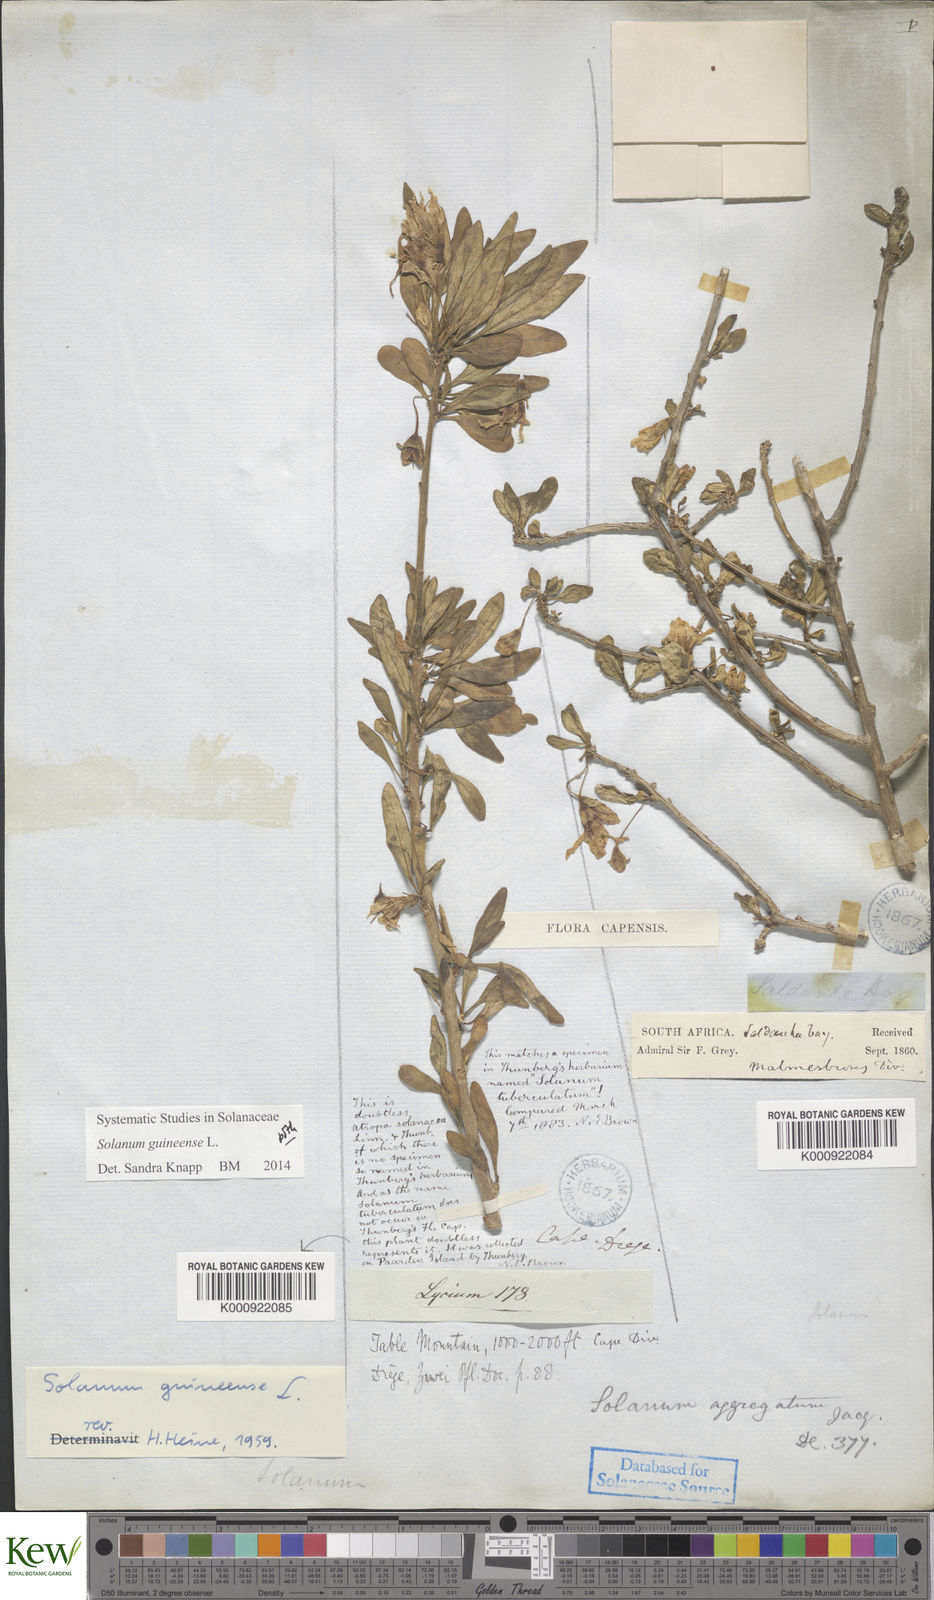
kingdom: Plantae
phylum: Tracheophyta
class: Magnoliopsida
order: Solanales
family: Solanaceae
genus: Solanum
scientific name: Solanum guineense
